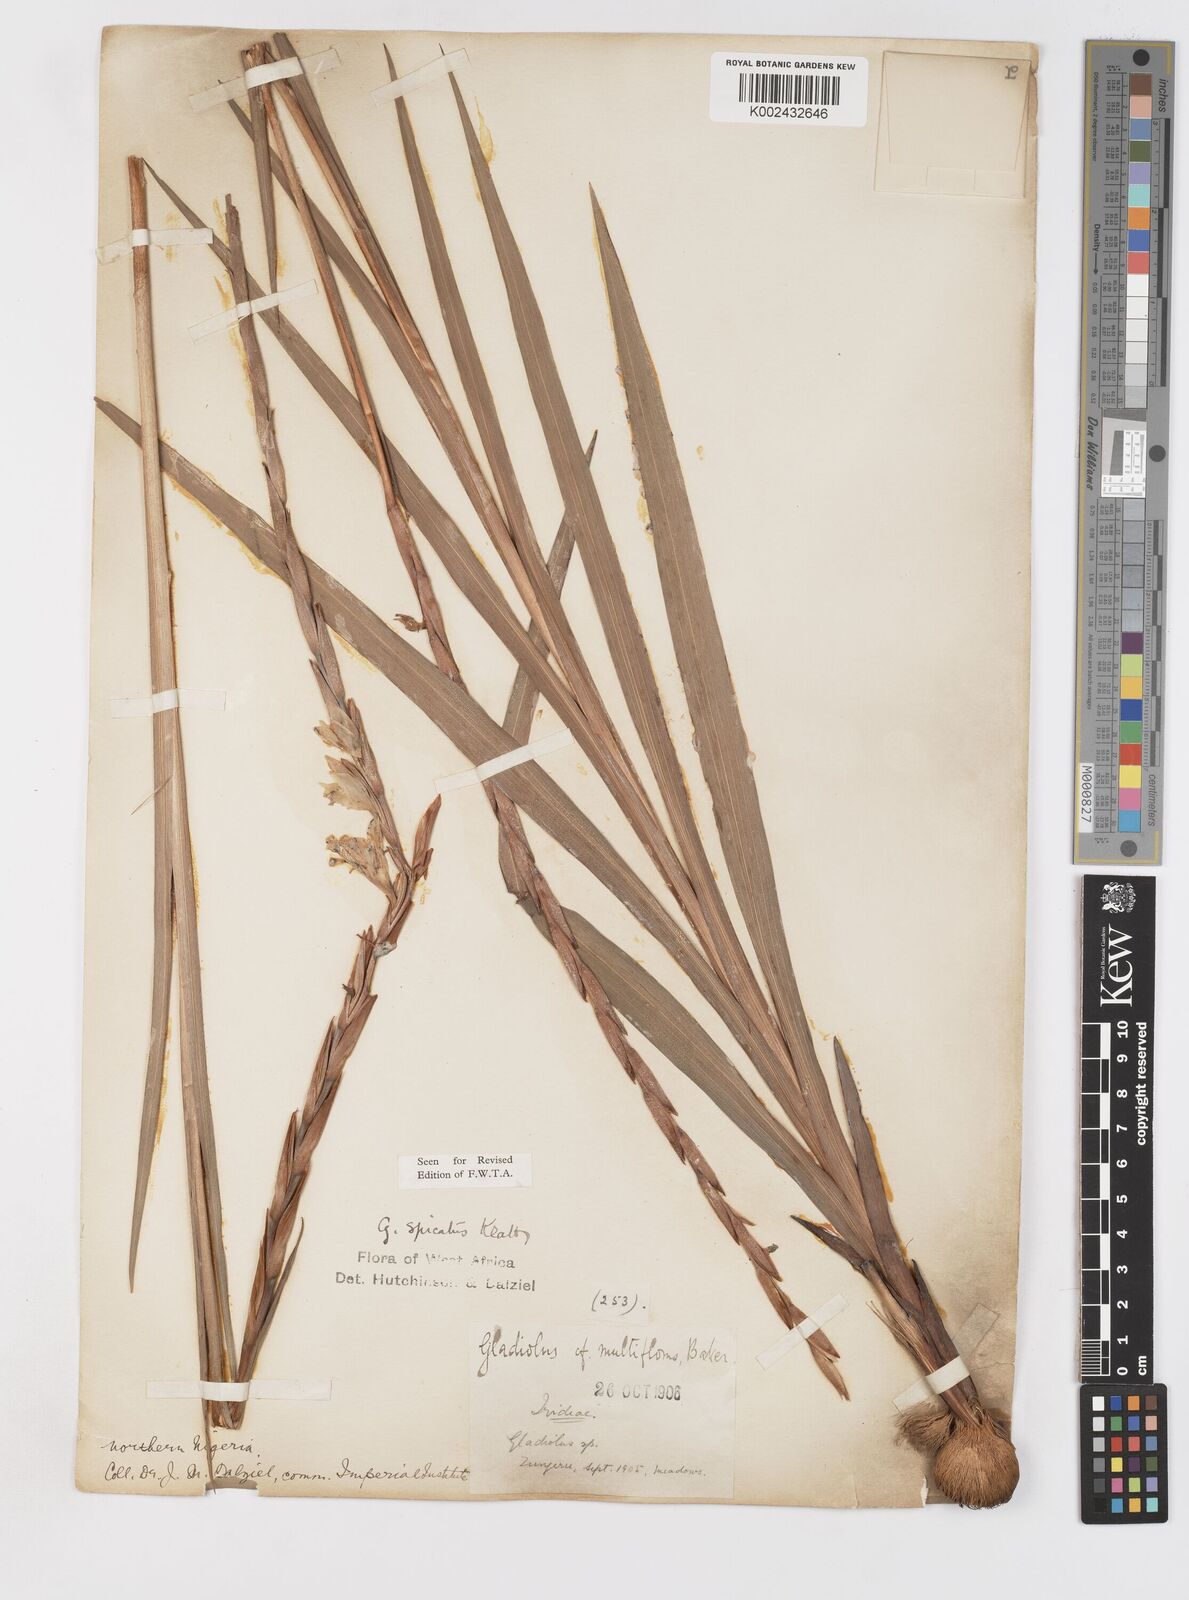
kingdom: Plantae
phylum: Tracheophyta
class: Liliopsida
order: Asparagales
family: Iridaceae
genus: Gladiolus
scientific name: Gladiolus gregarius
